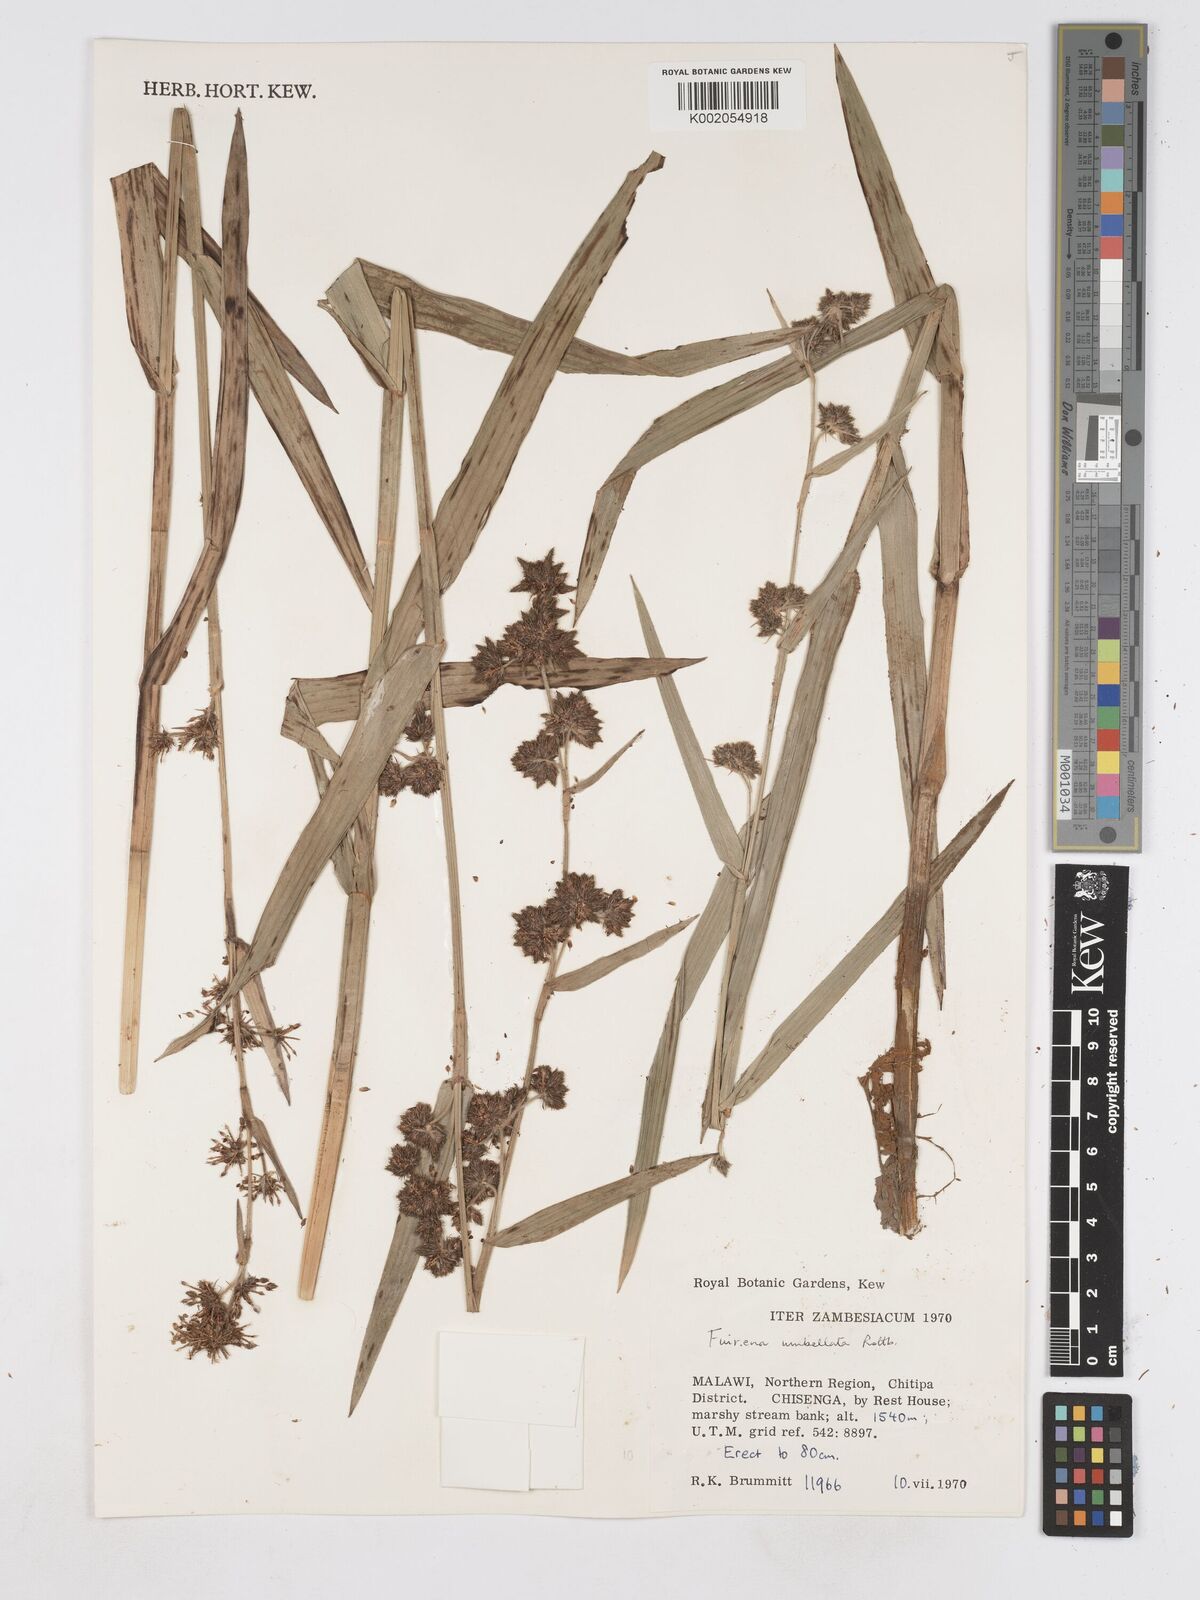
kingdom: Plantae
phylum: Tracheophyta
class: Liliopsida
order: Poales
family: Cyperaceae
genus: Fuirena
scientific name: Fuirena umbellata
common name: Yefen
